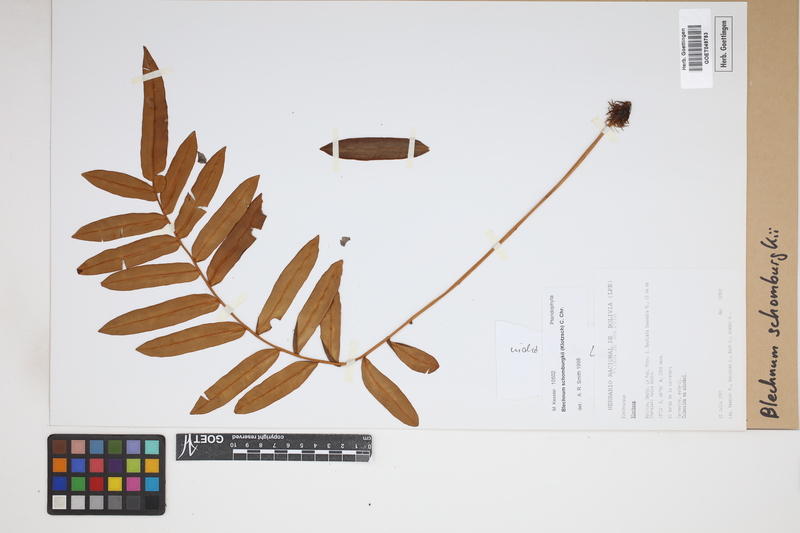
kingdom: Plantae
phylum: Tracheophyta
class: Polypodiopsida
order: Polypodiales
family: Blechnaceae
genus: Lomariocycas
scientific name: Lomariocycas schomburgkii
